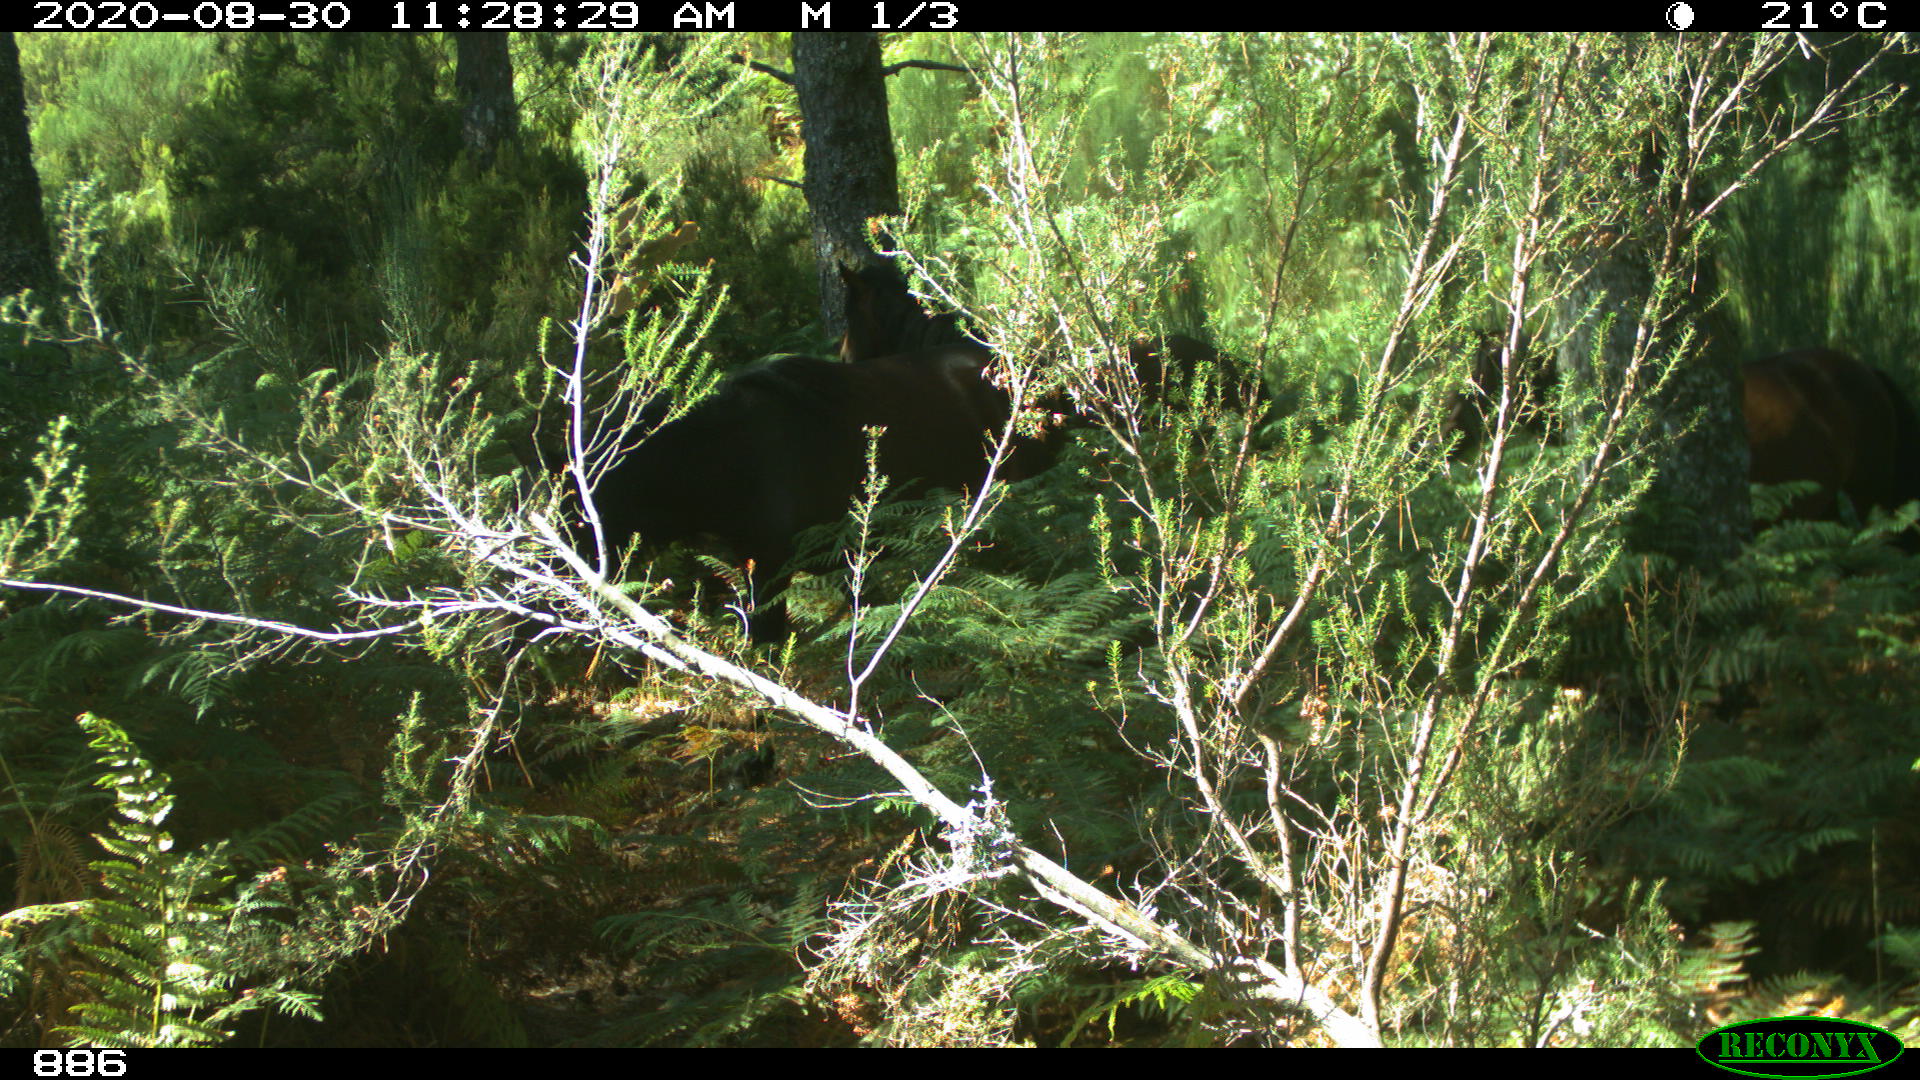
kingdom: Animalia
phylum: Chordata
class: Mammalia
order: Perissodactyla
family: Equidae
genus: Equus
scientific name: Equus caballus
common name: Horse
